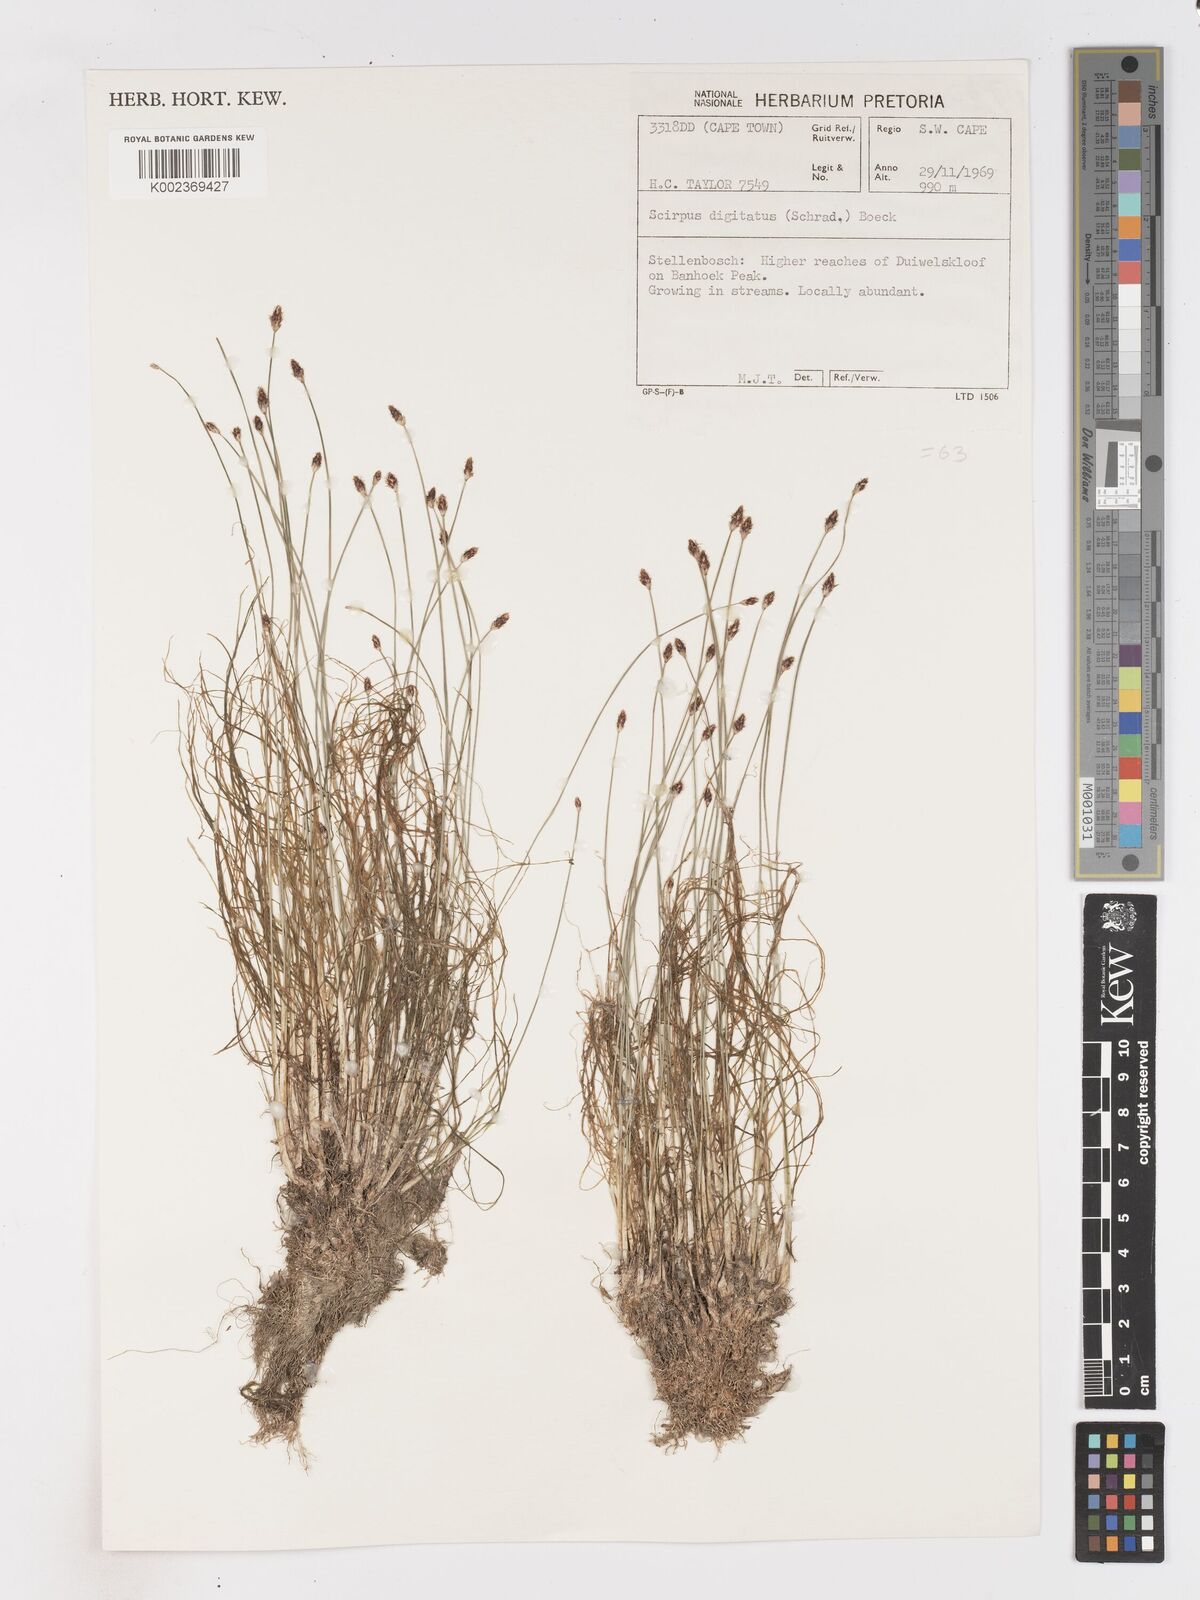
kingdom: Plantae
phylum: Tracheophyta
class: Liliopsida
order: Poales
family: Cyperaceae
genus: Isolepis
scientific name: Isolepis digitata
